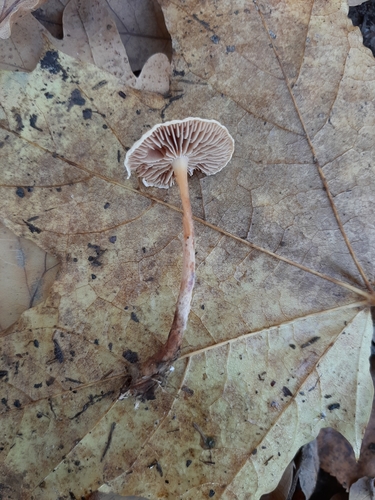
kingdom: Fungi
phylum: Basidiomycota
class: Agaricomycetes
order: Agaricales
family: Omphalotaceae
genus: Collybiopsis
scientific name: Collybiopsis peronata
